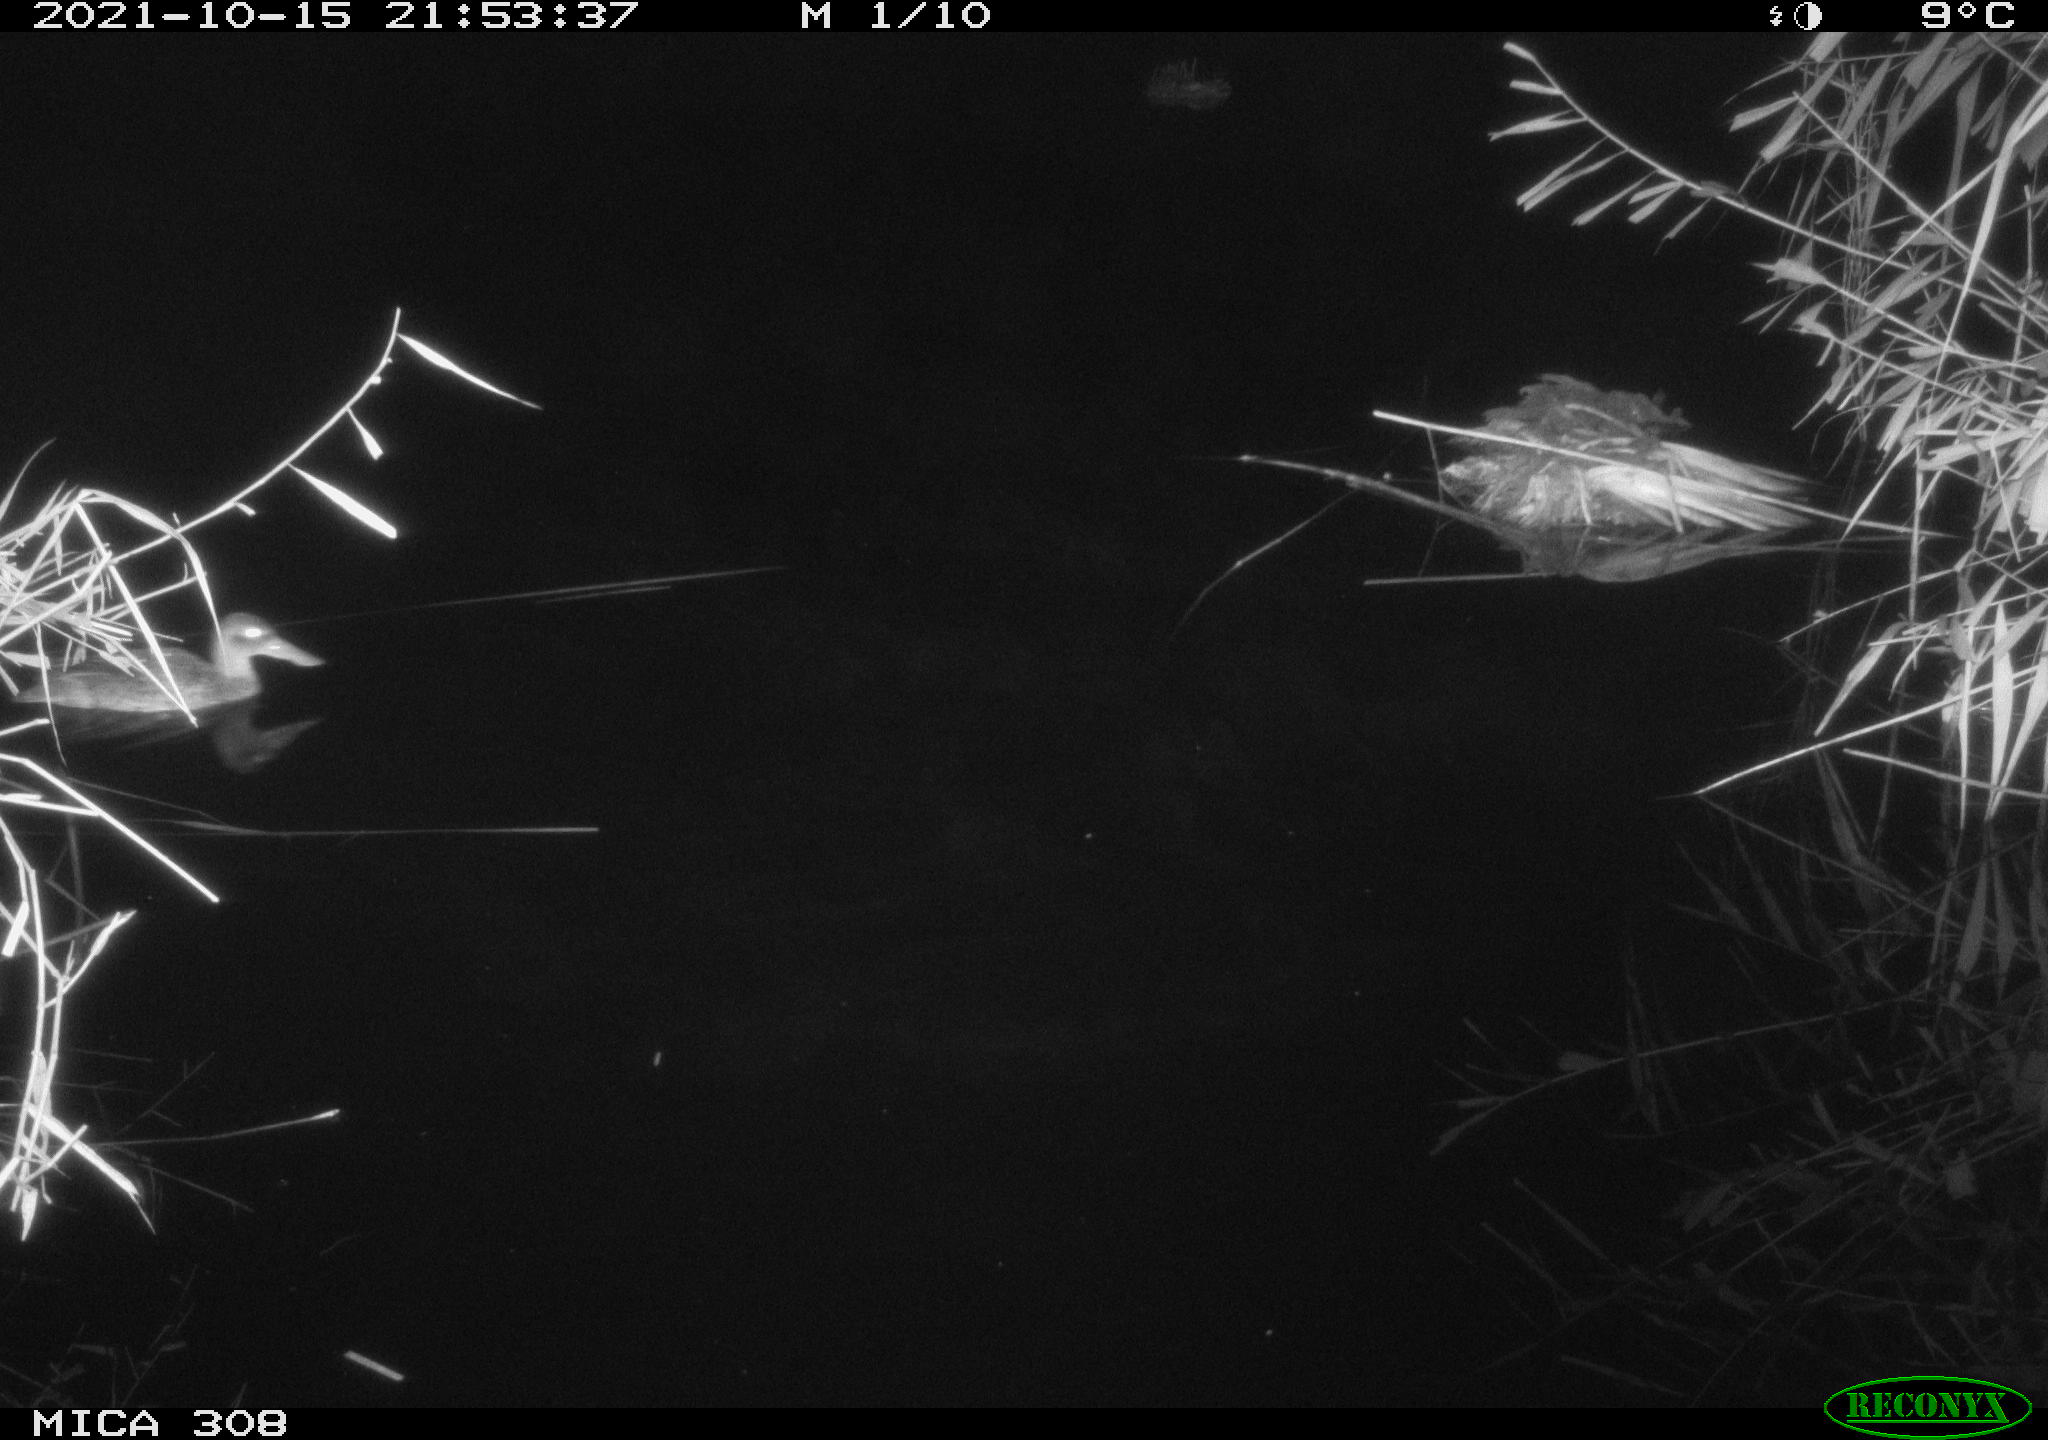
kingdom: Animalia
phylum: Chordata
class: Aves
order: Anseriformes
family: Anatidae
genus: Spatula
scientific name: Spatula clypeata
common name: Northern shoveler
